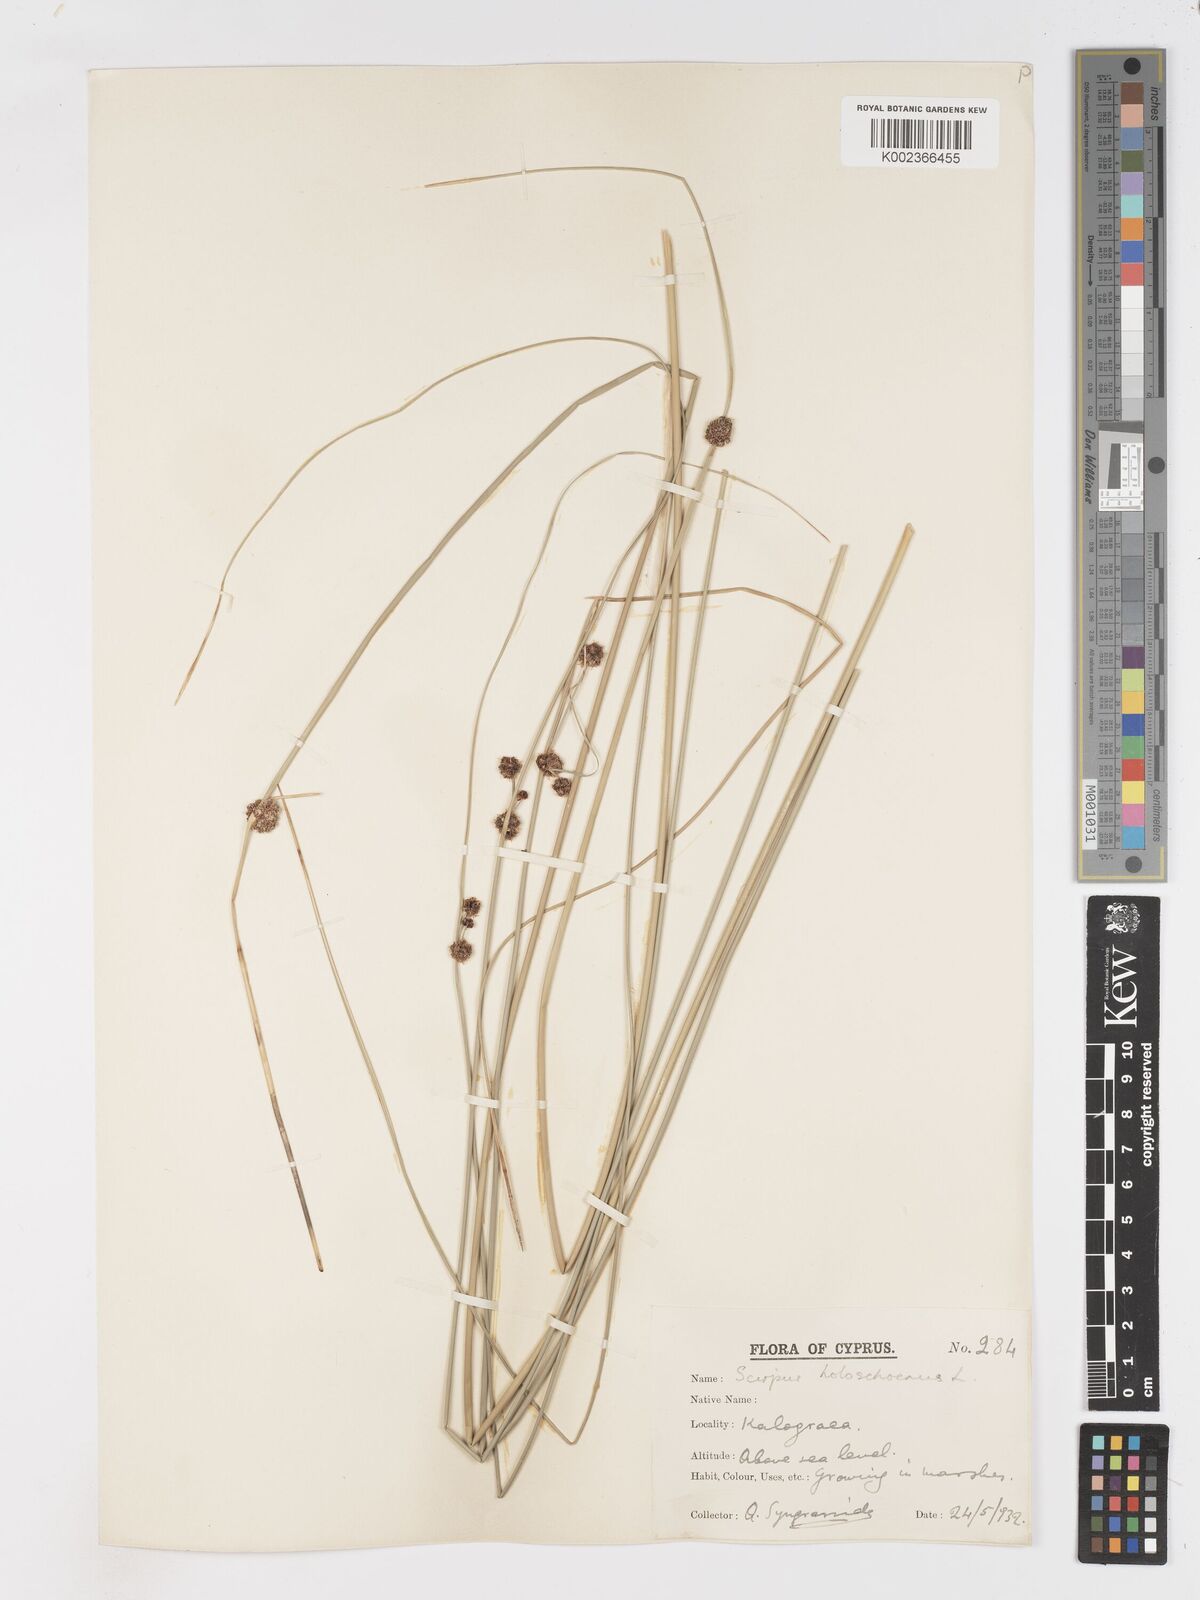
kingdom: Plantae
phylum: Tracheophyta
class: Liliopsida
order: Poales
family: Cyperaceae
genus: Scirpoides
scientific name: Scirpoides holoschoenus
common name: Round-headed club-rush
